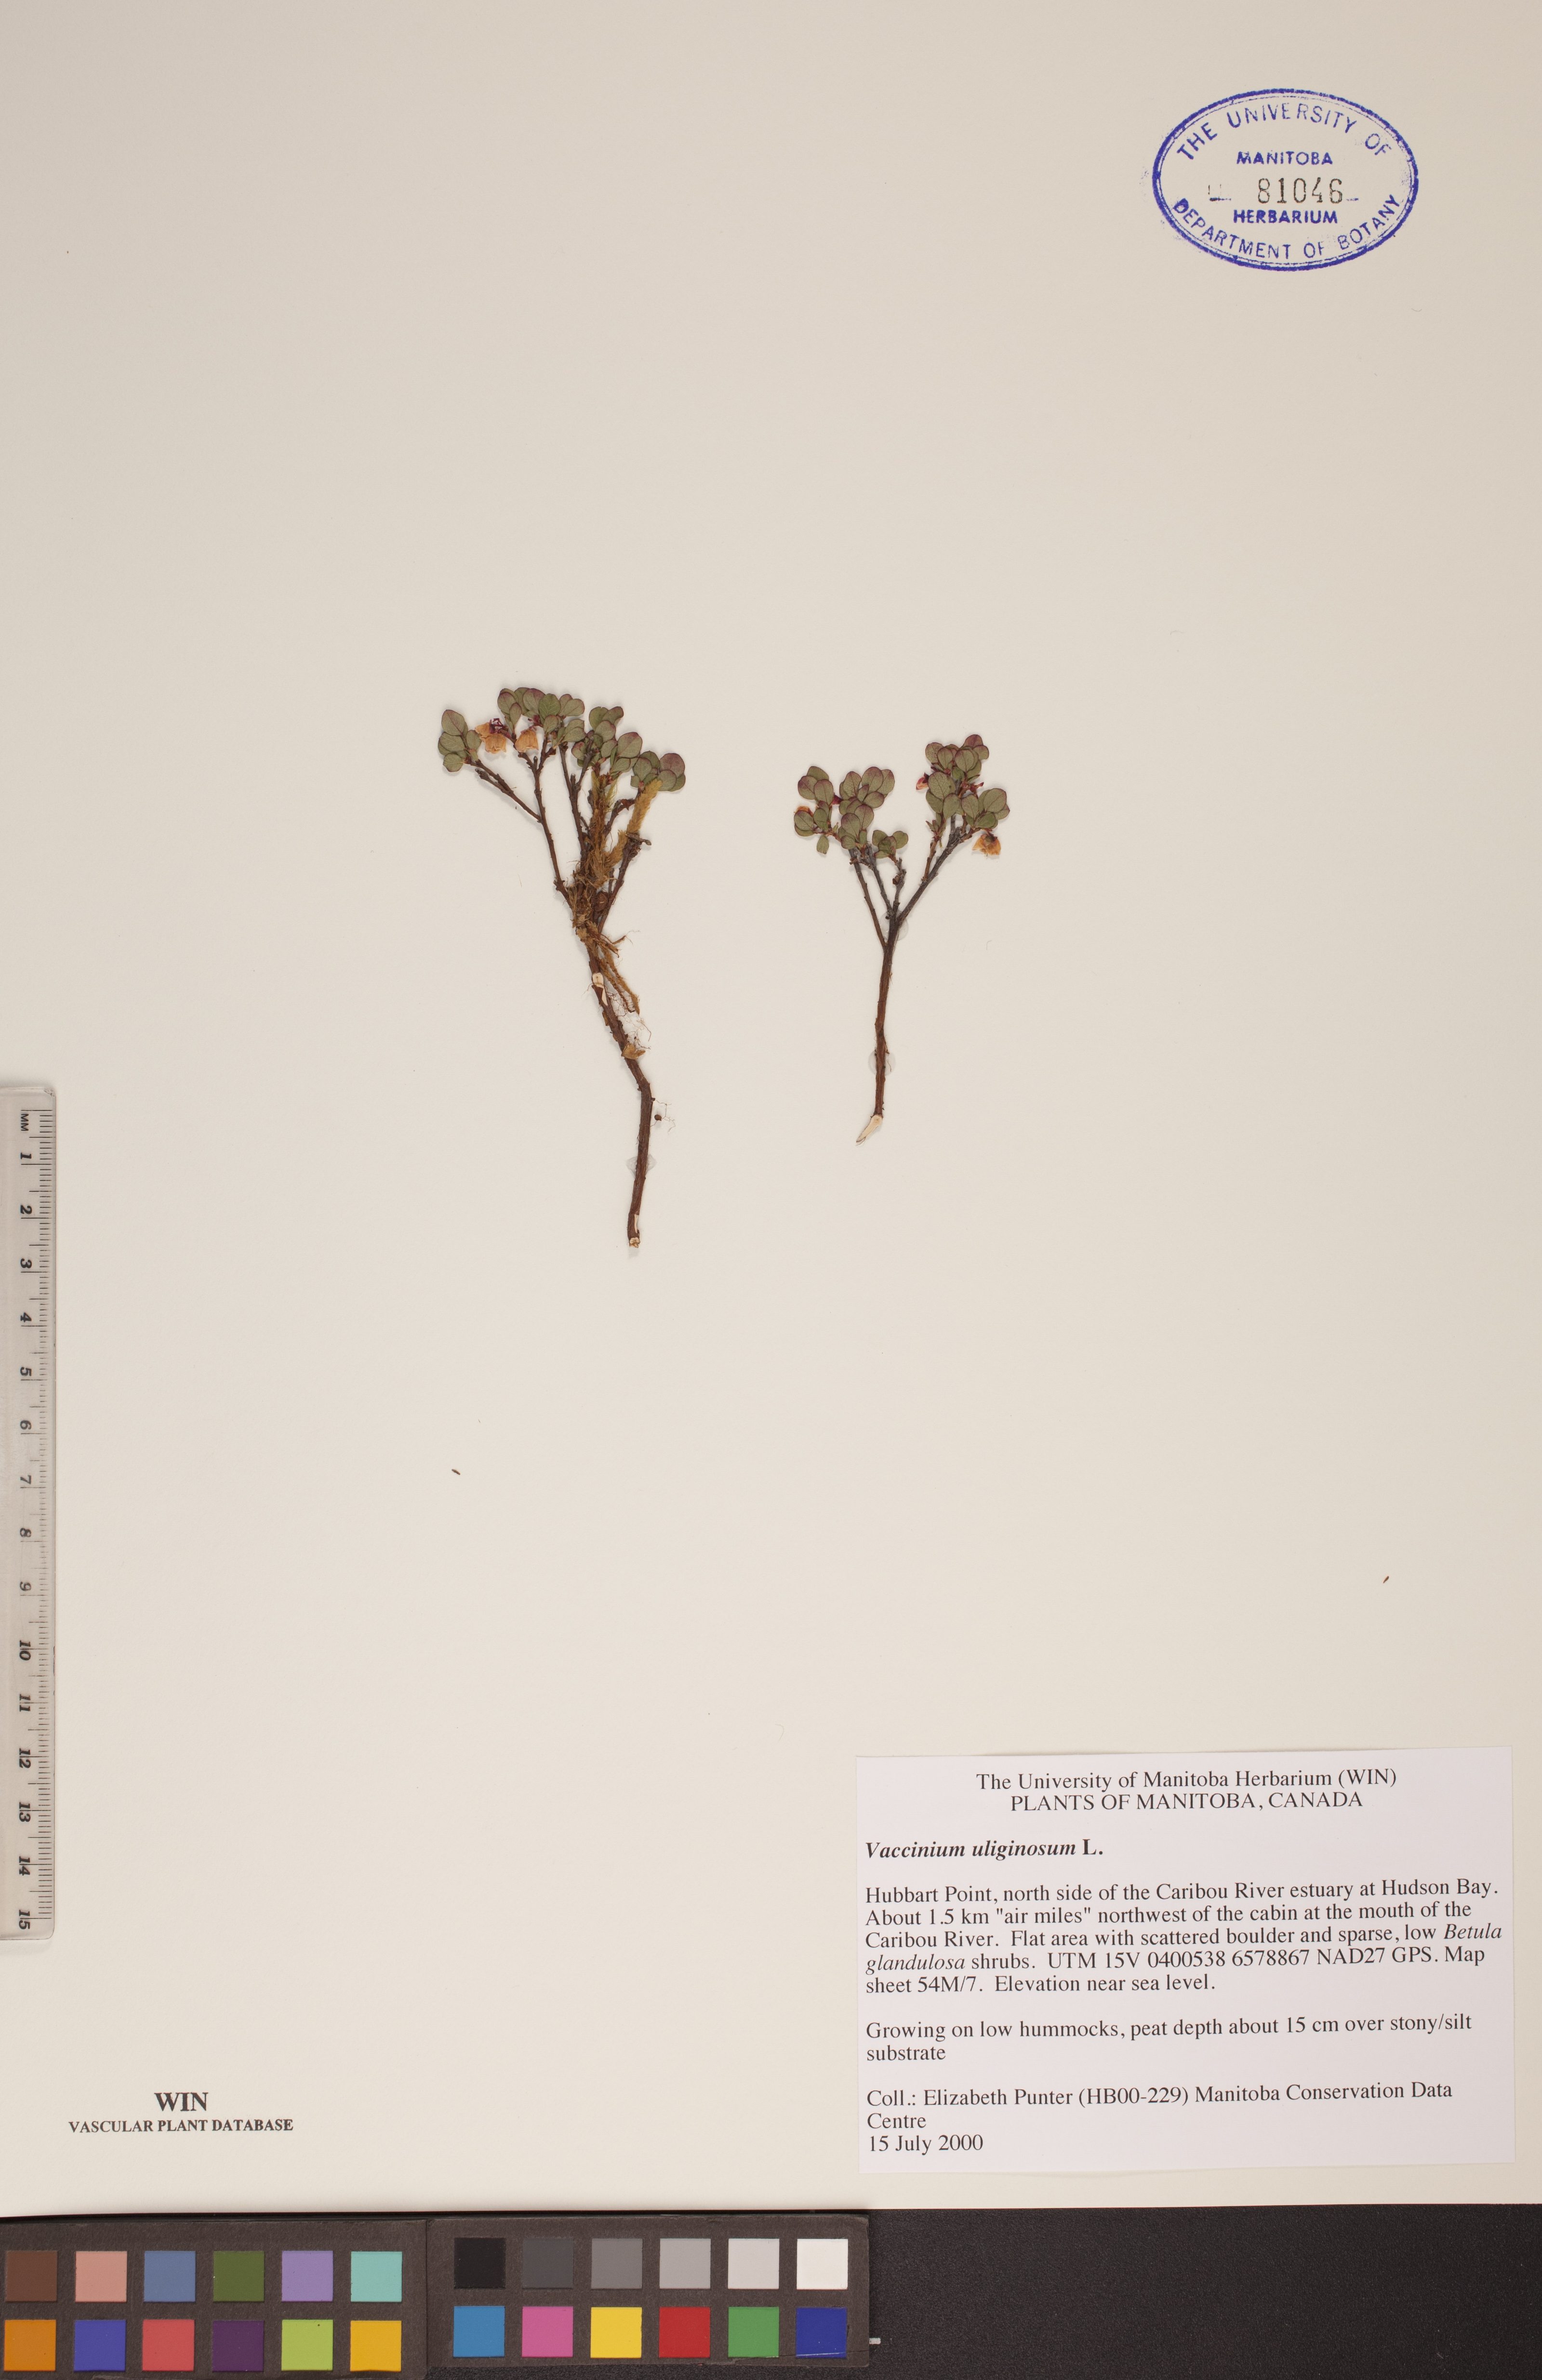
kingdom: Plantae
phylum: Tracheophyta
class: Magnoliopsida
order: Ericales
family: Ericaceae
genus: Vaccinium
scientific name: Vaccinium uliginosum
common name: Bog bilberry
